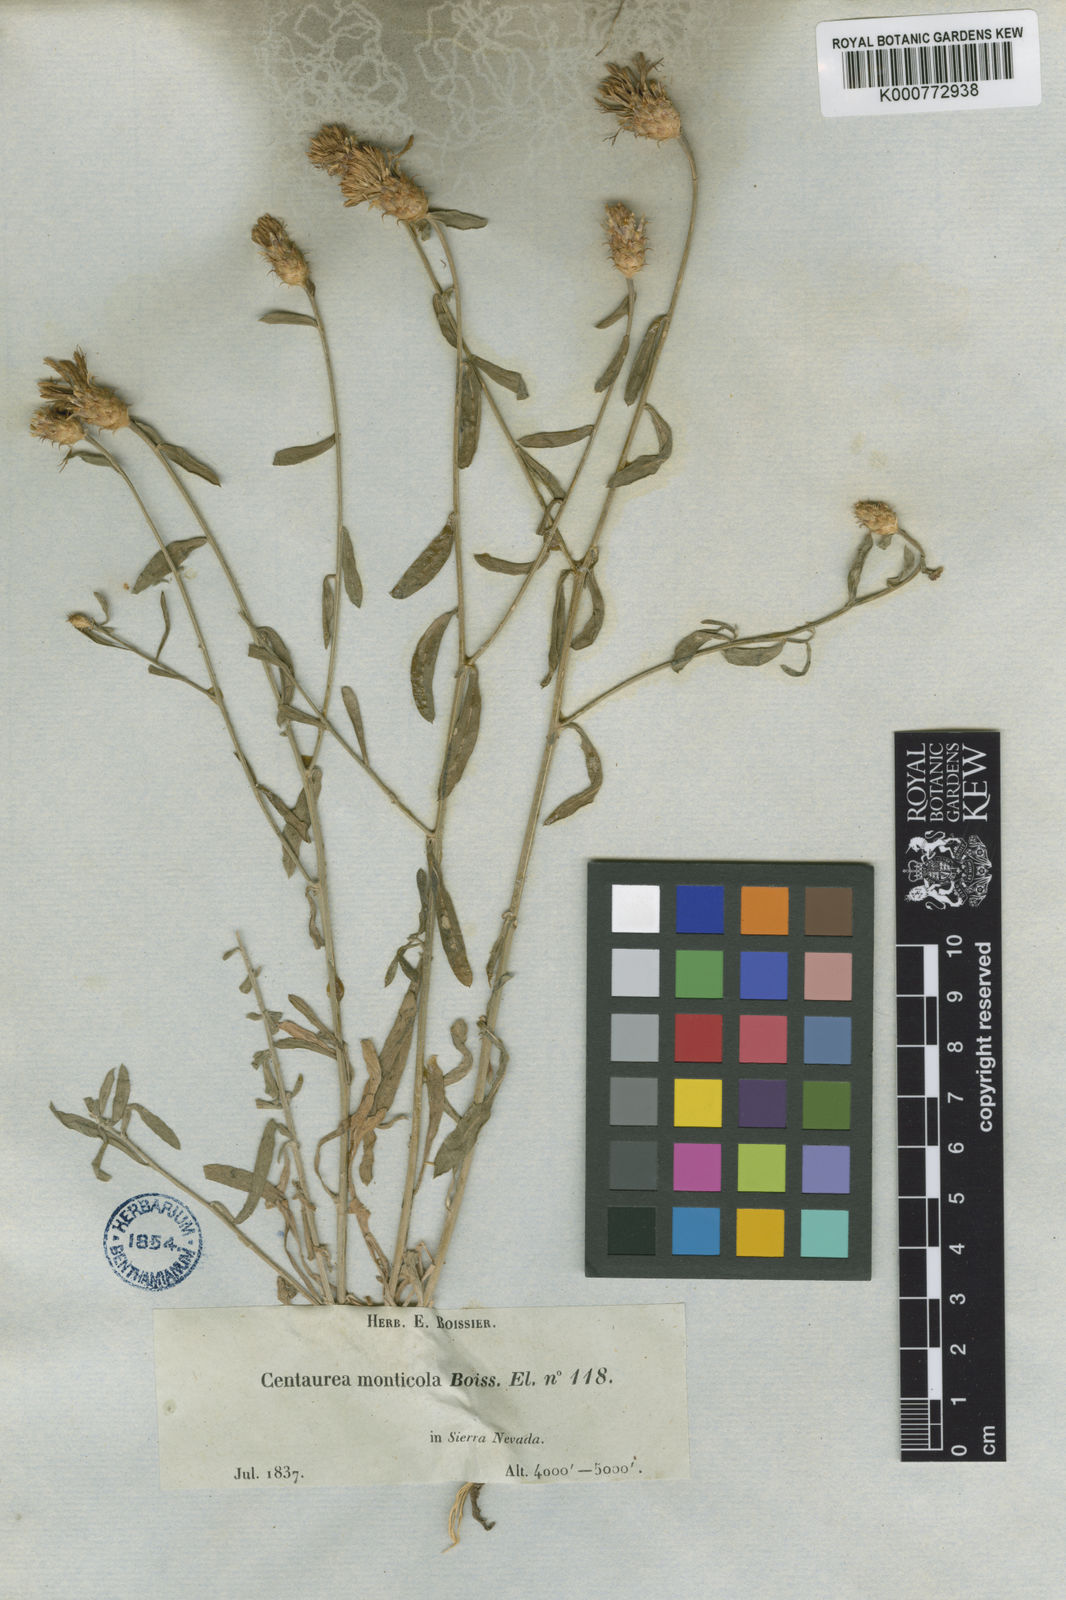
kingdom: Plantae
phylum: Tracheophyta
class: Magnoliopsida
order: Asterales
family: Asteraceae
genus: Centaurea
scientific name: Centaurea monticola
